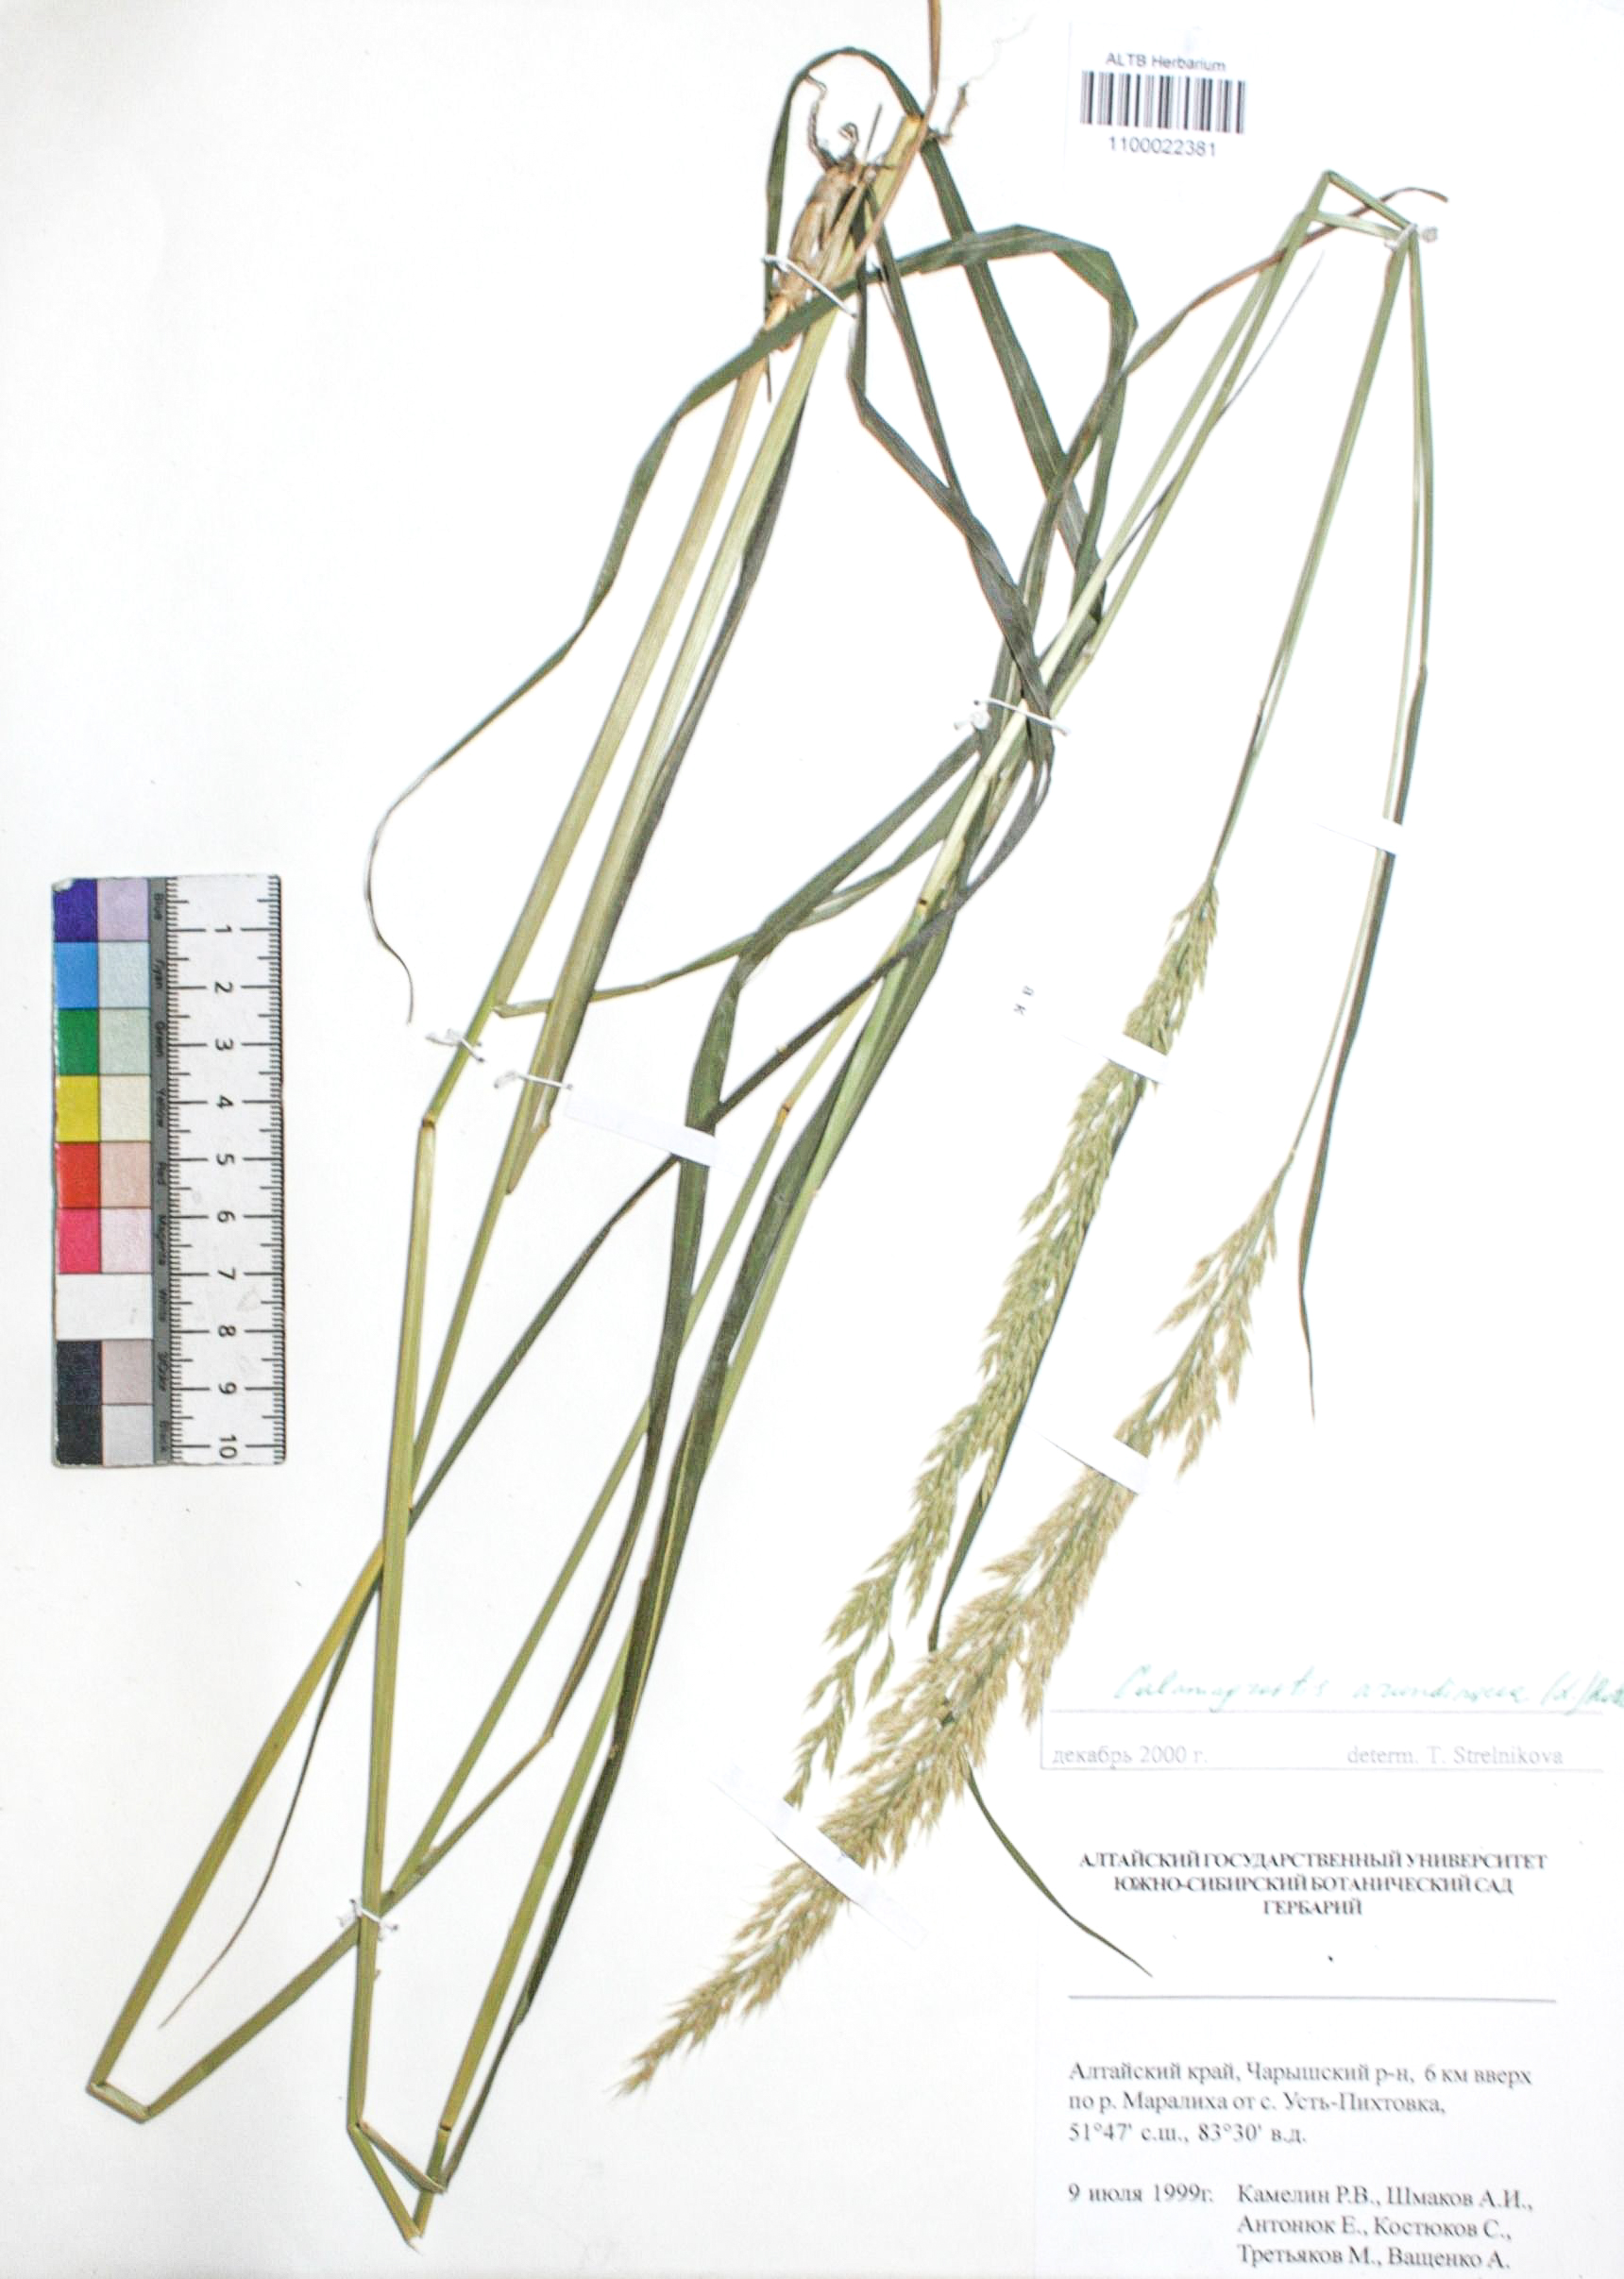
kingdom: Plantae
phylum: Tracheophyta
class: Liliopsida
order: Poales
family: Poaceae
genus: Calamagrostis
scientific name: Calamagrostis arundinacea
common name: Metskastik
